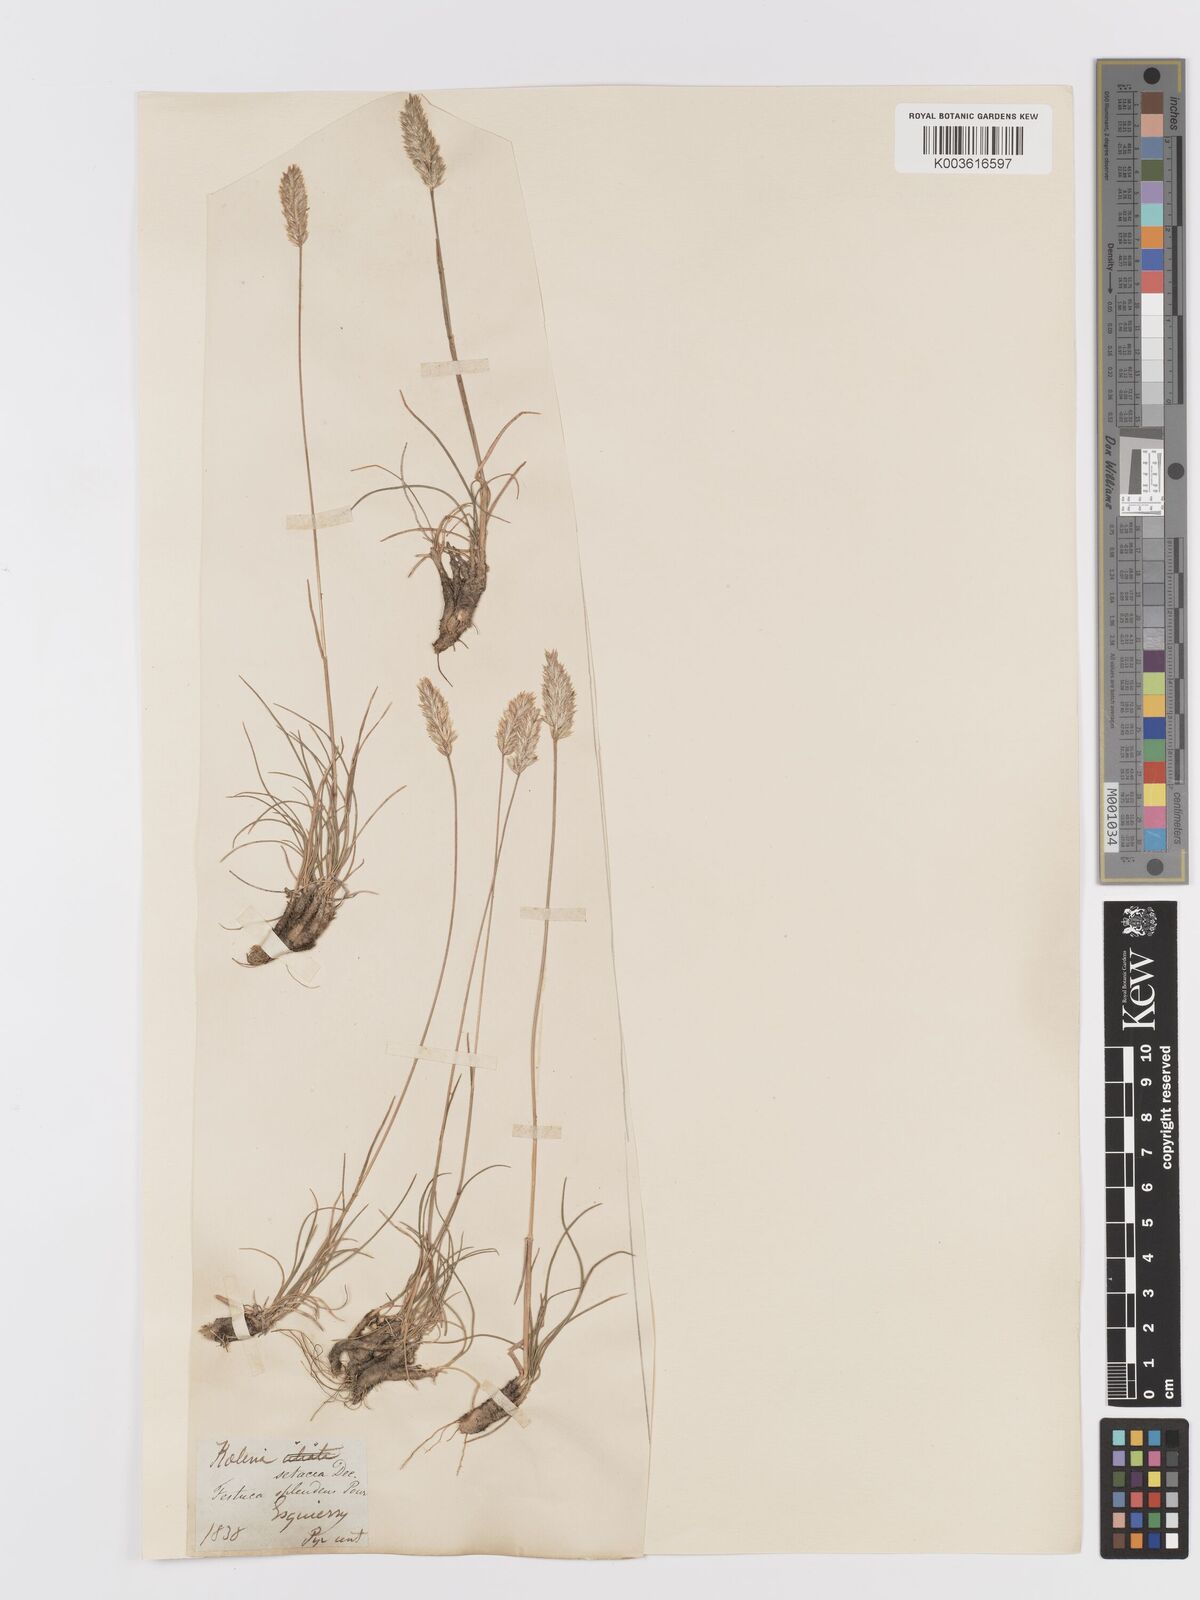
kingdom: Plantae
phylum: Tracheophyta
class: Liliopsida
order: Poales
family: Poaceae
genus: Koeleria
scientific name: Koeleria vallesiana
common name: Somerset hair-grass
